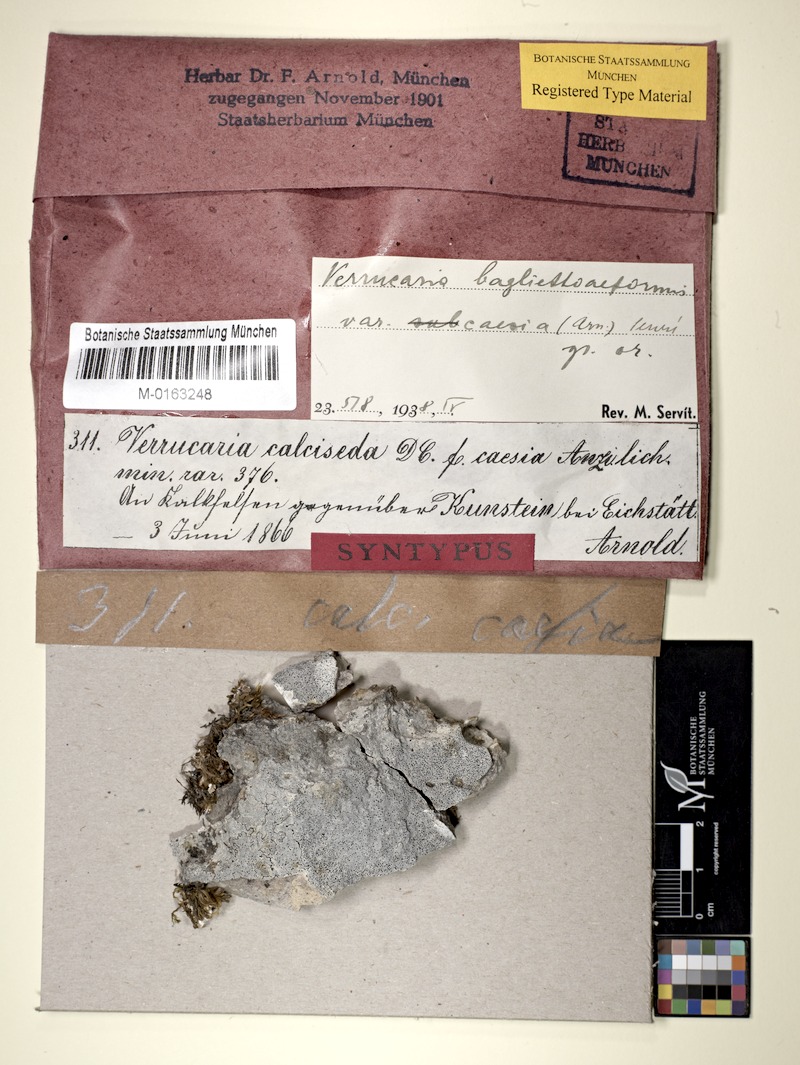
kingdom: Fungi
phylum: Ascomycota
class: Eurotiomycetes
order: Verrucariales
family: Verrucariaceae
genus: Bagliettoa
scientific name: Bagliettoa baldensis
